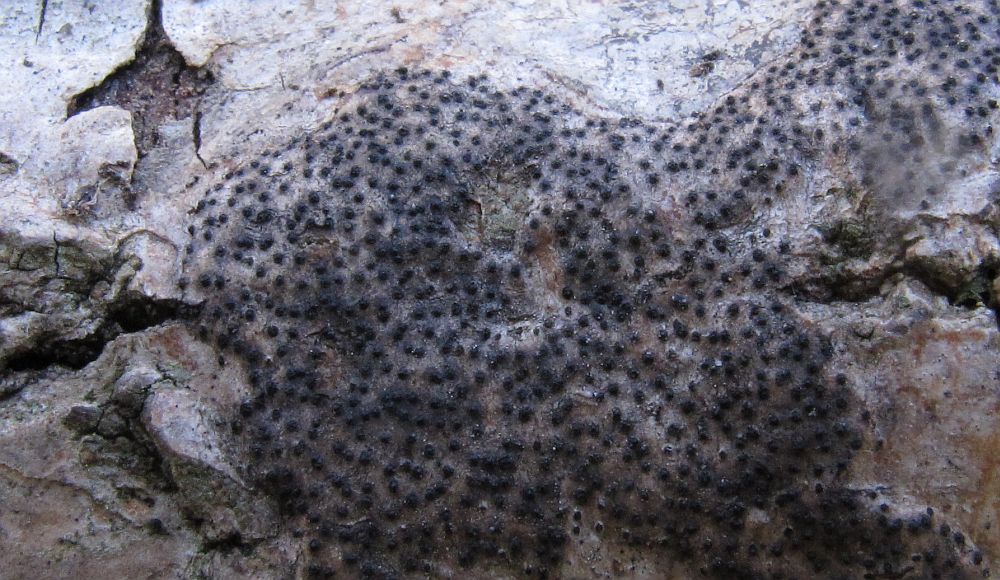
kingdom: Fungi
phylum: Ascomycota
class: Sordariomycetes
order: Diaporthales
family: Valsaceae
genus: Cytospora
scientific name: Cytospora populina
